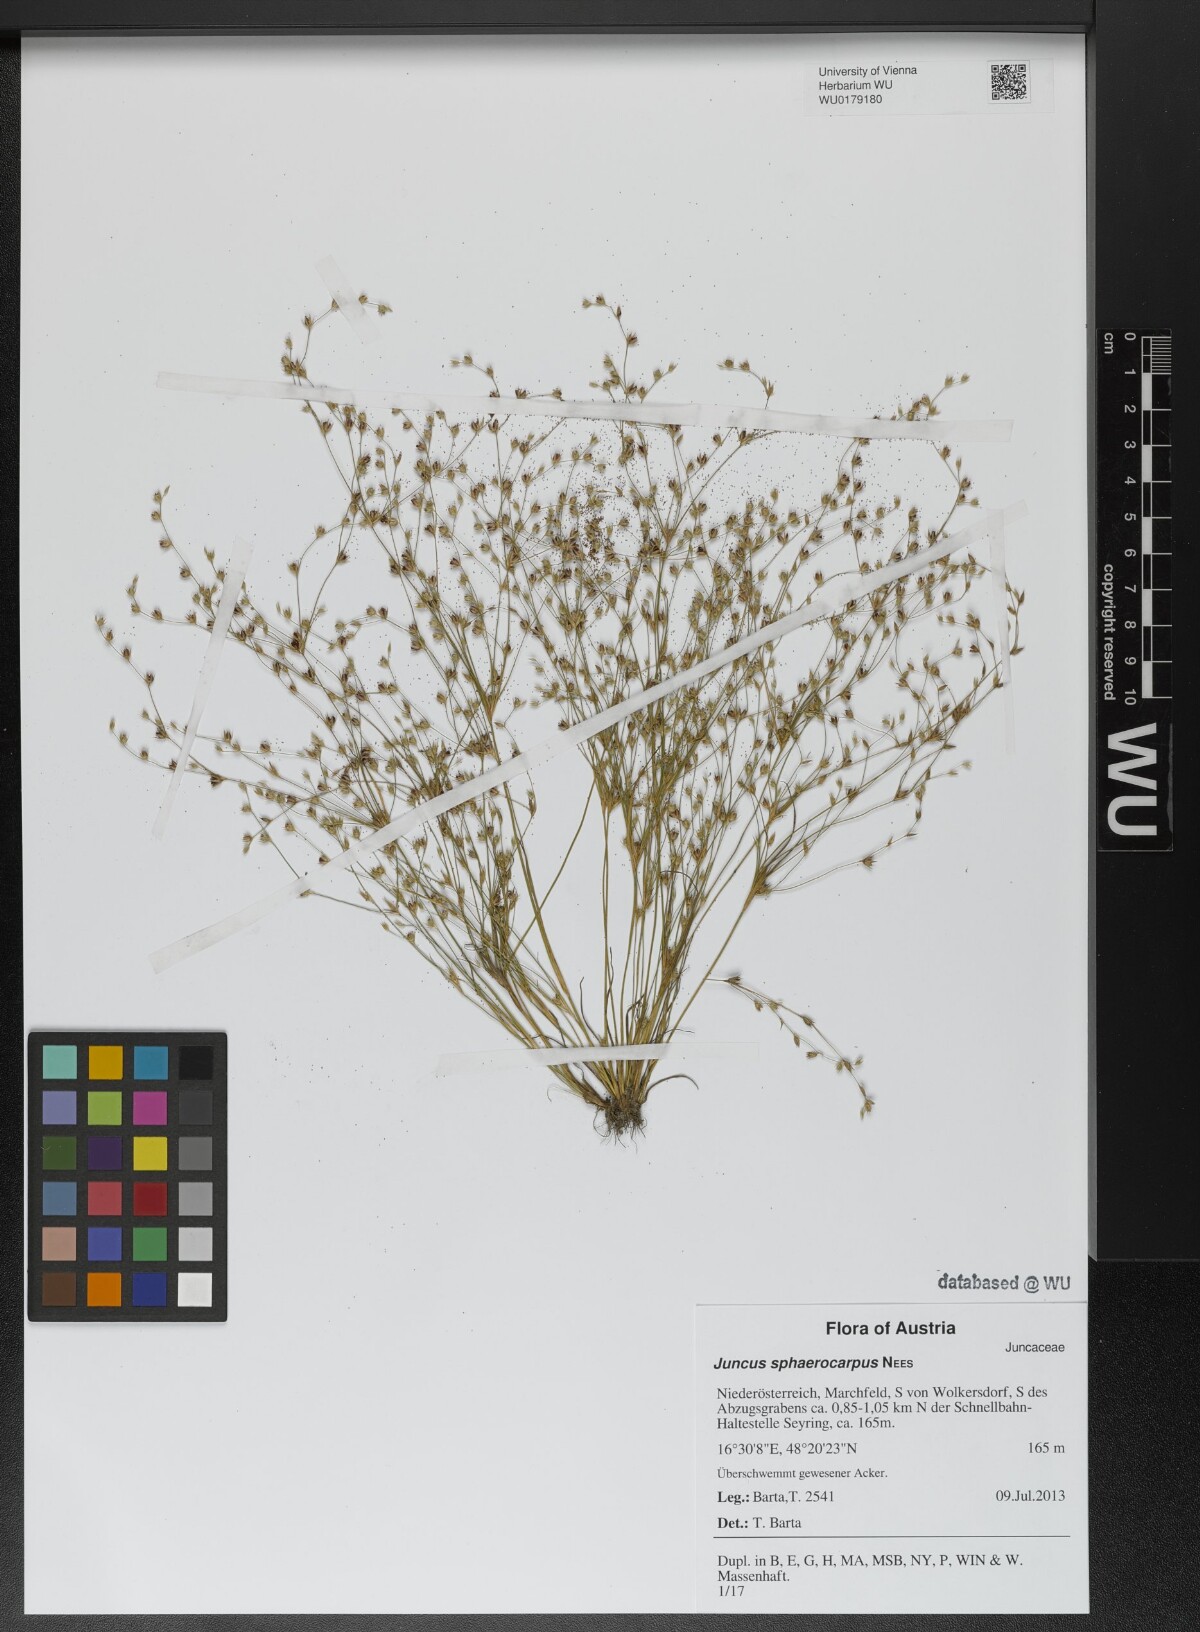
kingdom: Plantae
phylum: Tracheophyta
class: Liliopsida
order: Poales
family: Juncaceae
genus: Juncus
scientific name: Juncus sphaerocarpus
